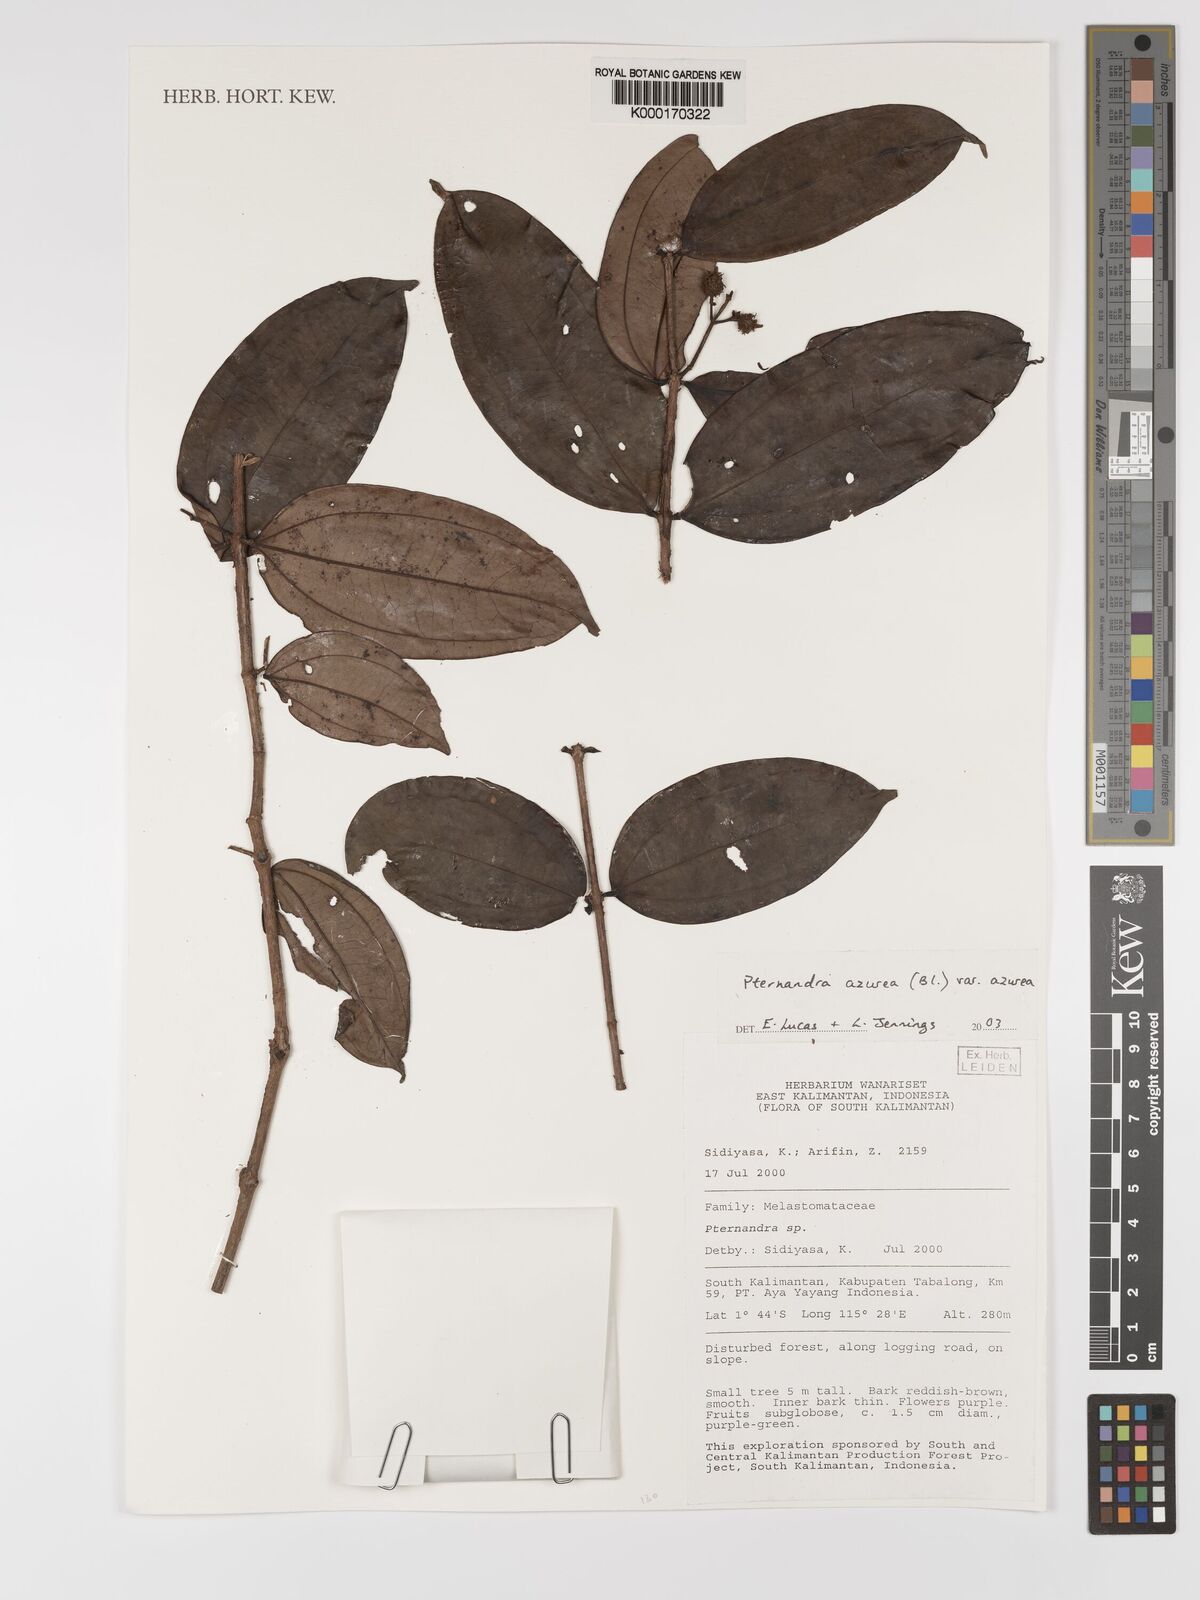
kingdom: Plantae
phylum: Tracheophyta
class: Magnoliopsida
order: Myrtales
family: Melastomataceae
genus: Pternandra
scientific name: Pternandra azurea
